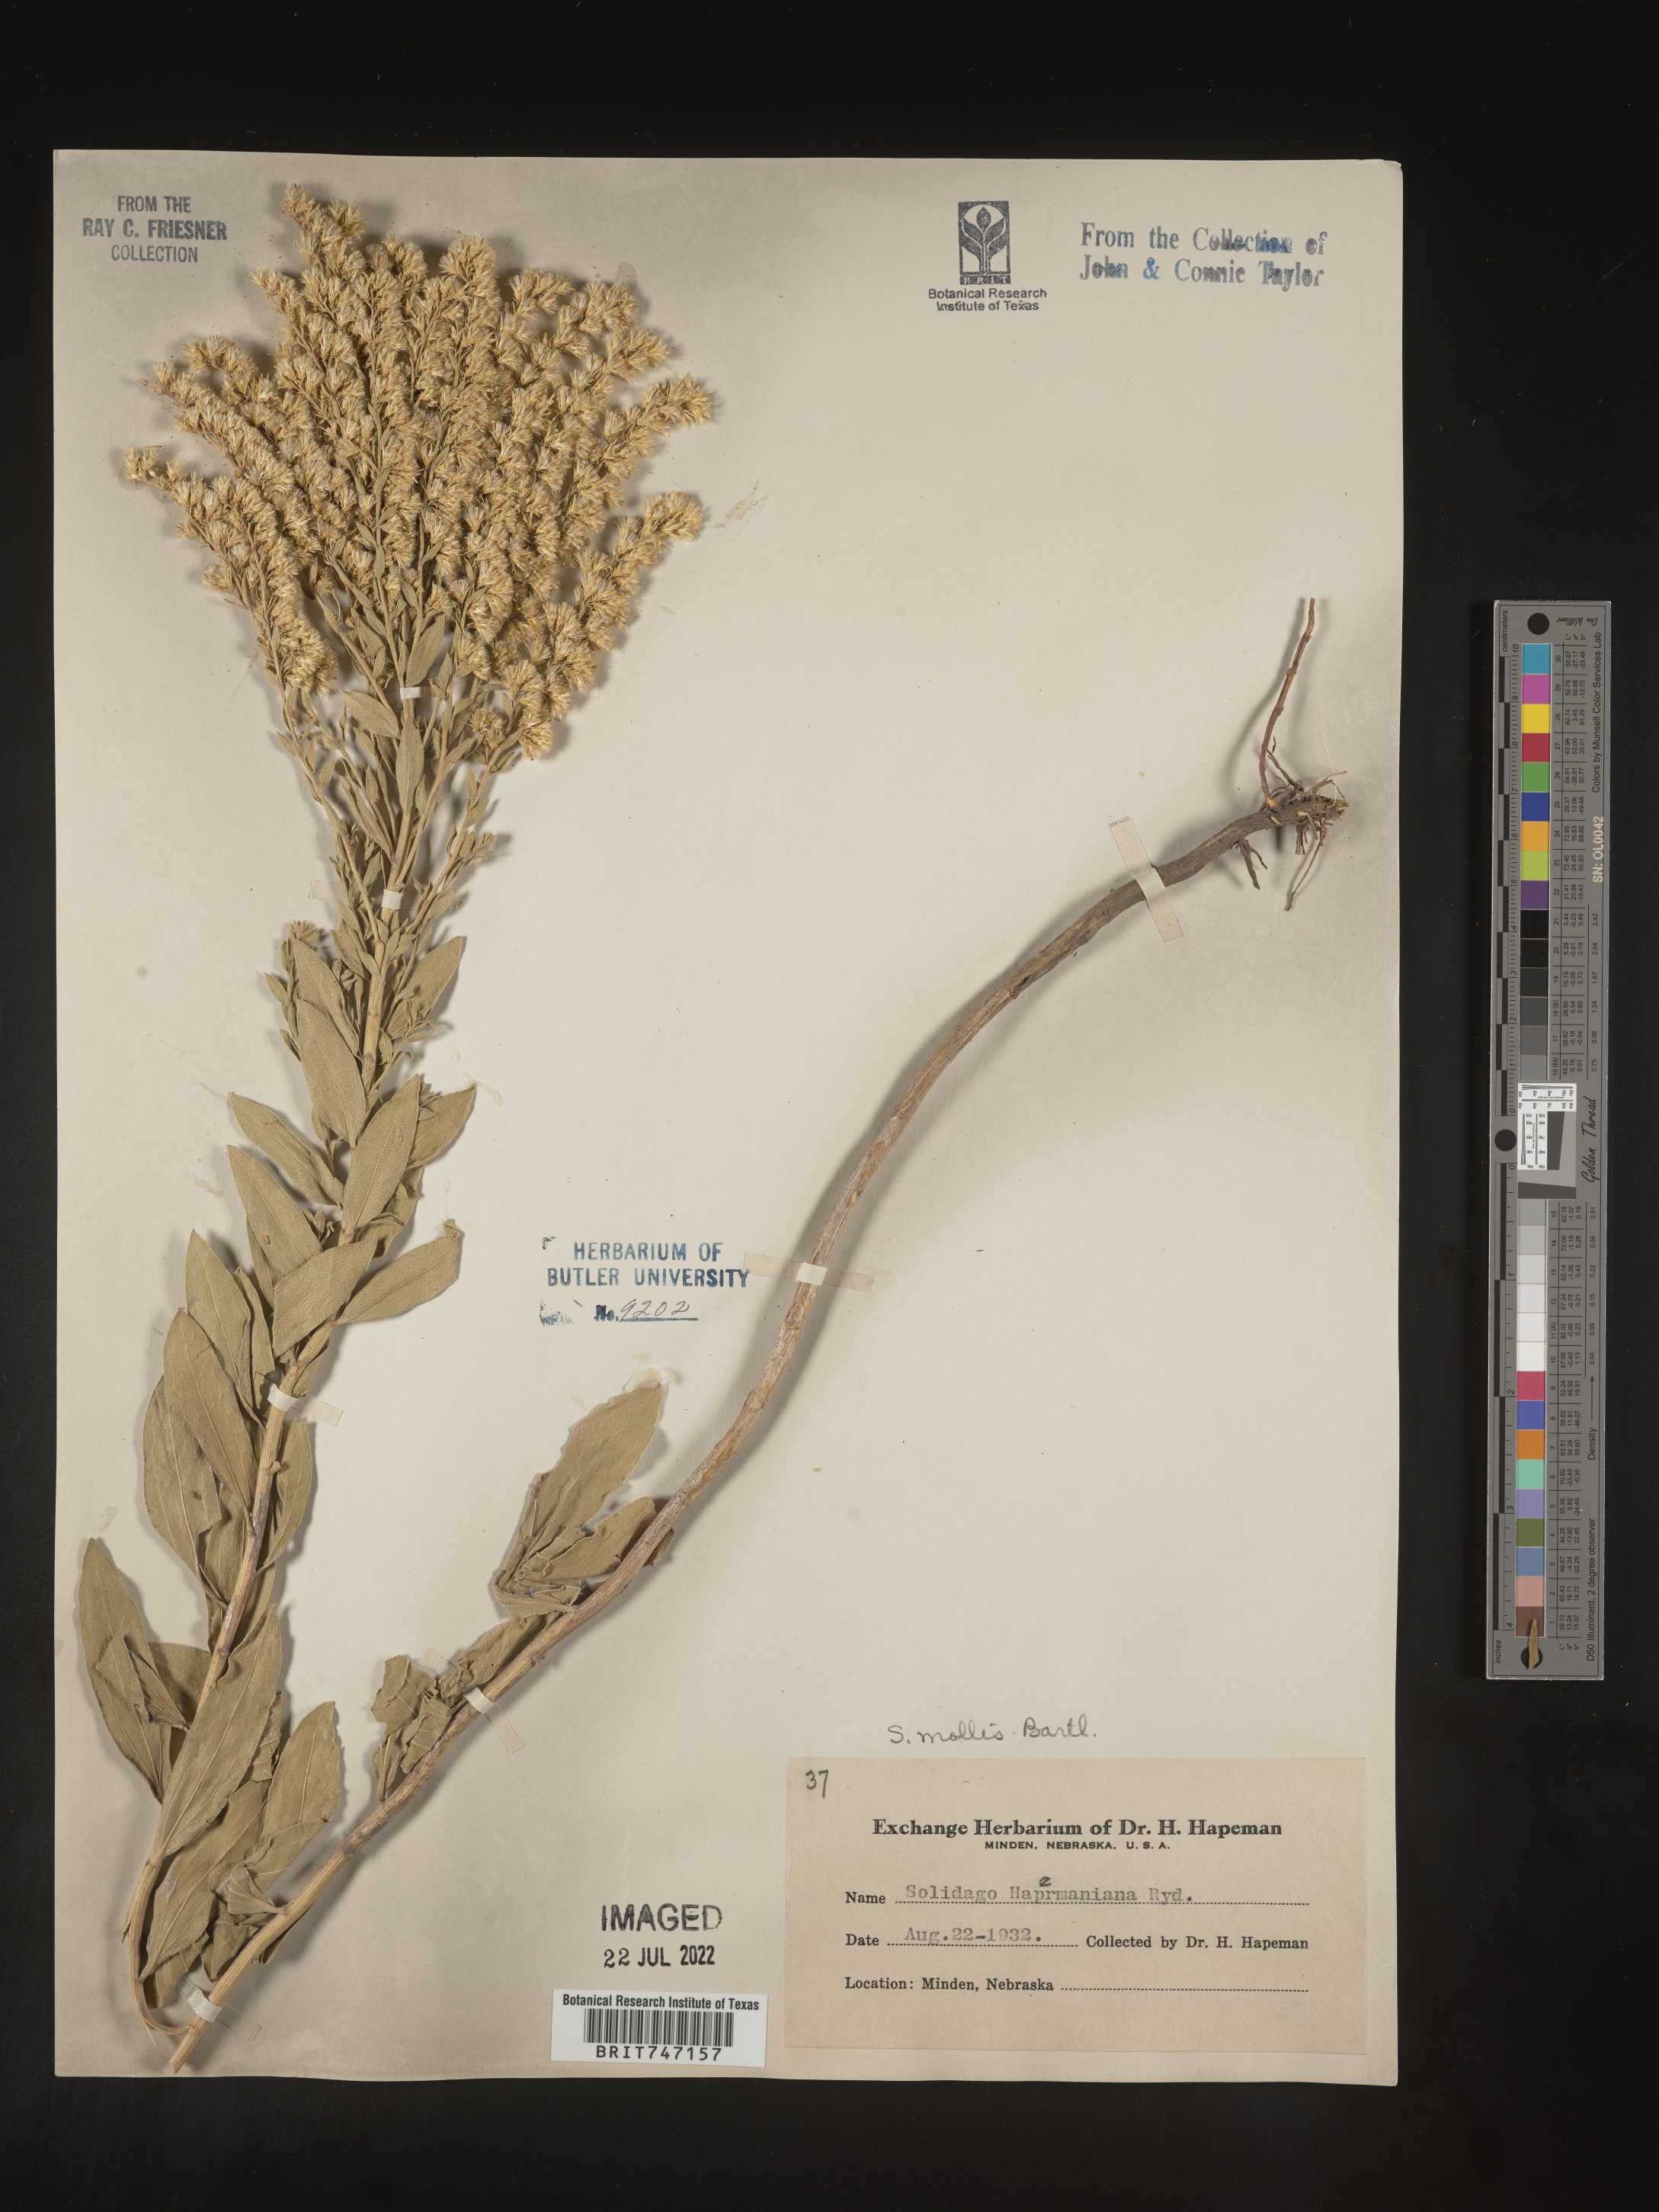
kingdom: Plantae
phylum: Tracheophyta
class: Magnoliopsida
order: Asterales
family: Asteraceae
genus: Solidago
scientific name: Solidago mollis
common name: Ashly goldenrod
